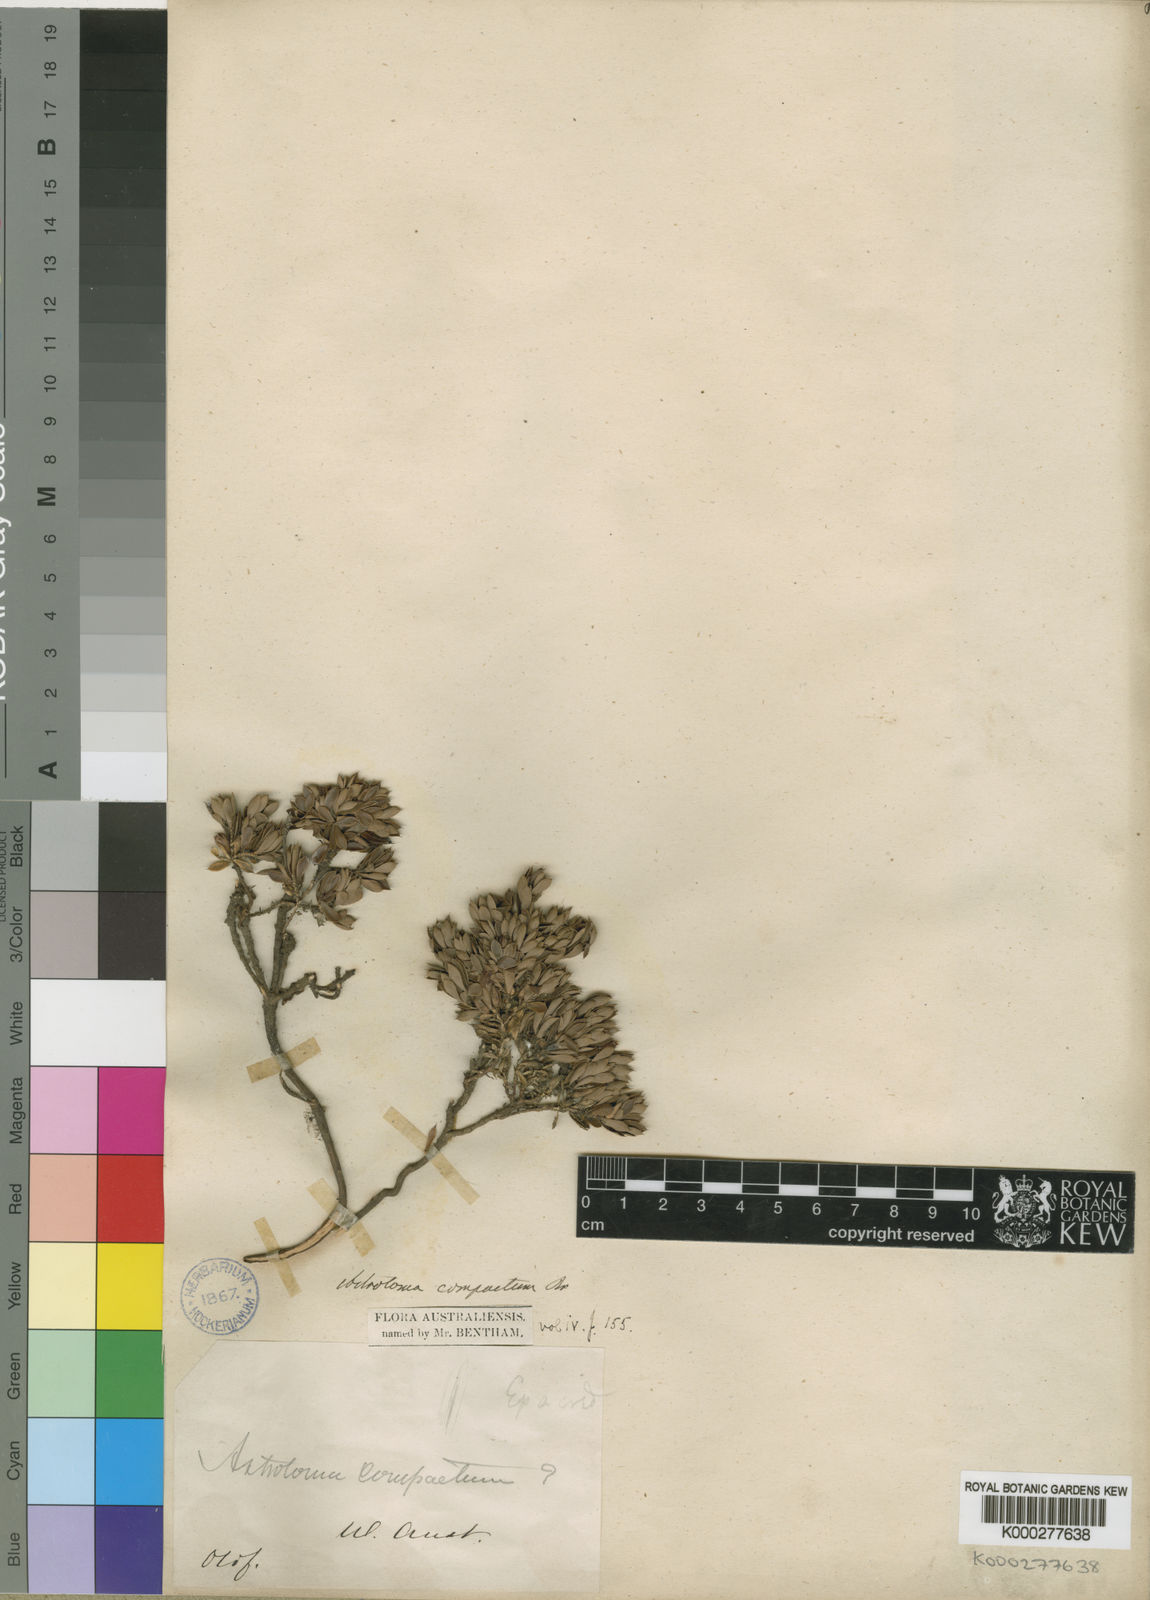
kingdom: Plantae
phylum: Tracheophyta
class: Magnoliopsida
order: Ericales
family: Ericaceae
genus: Styphelia
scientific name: Styphelia compacta
